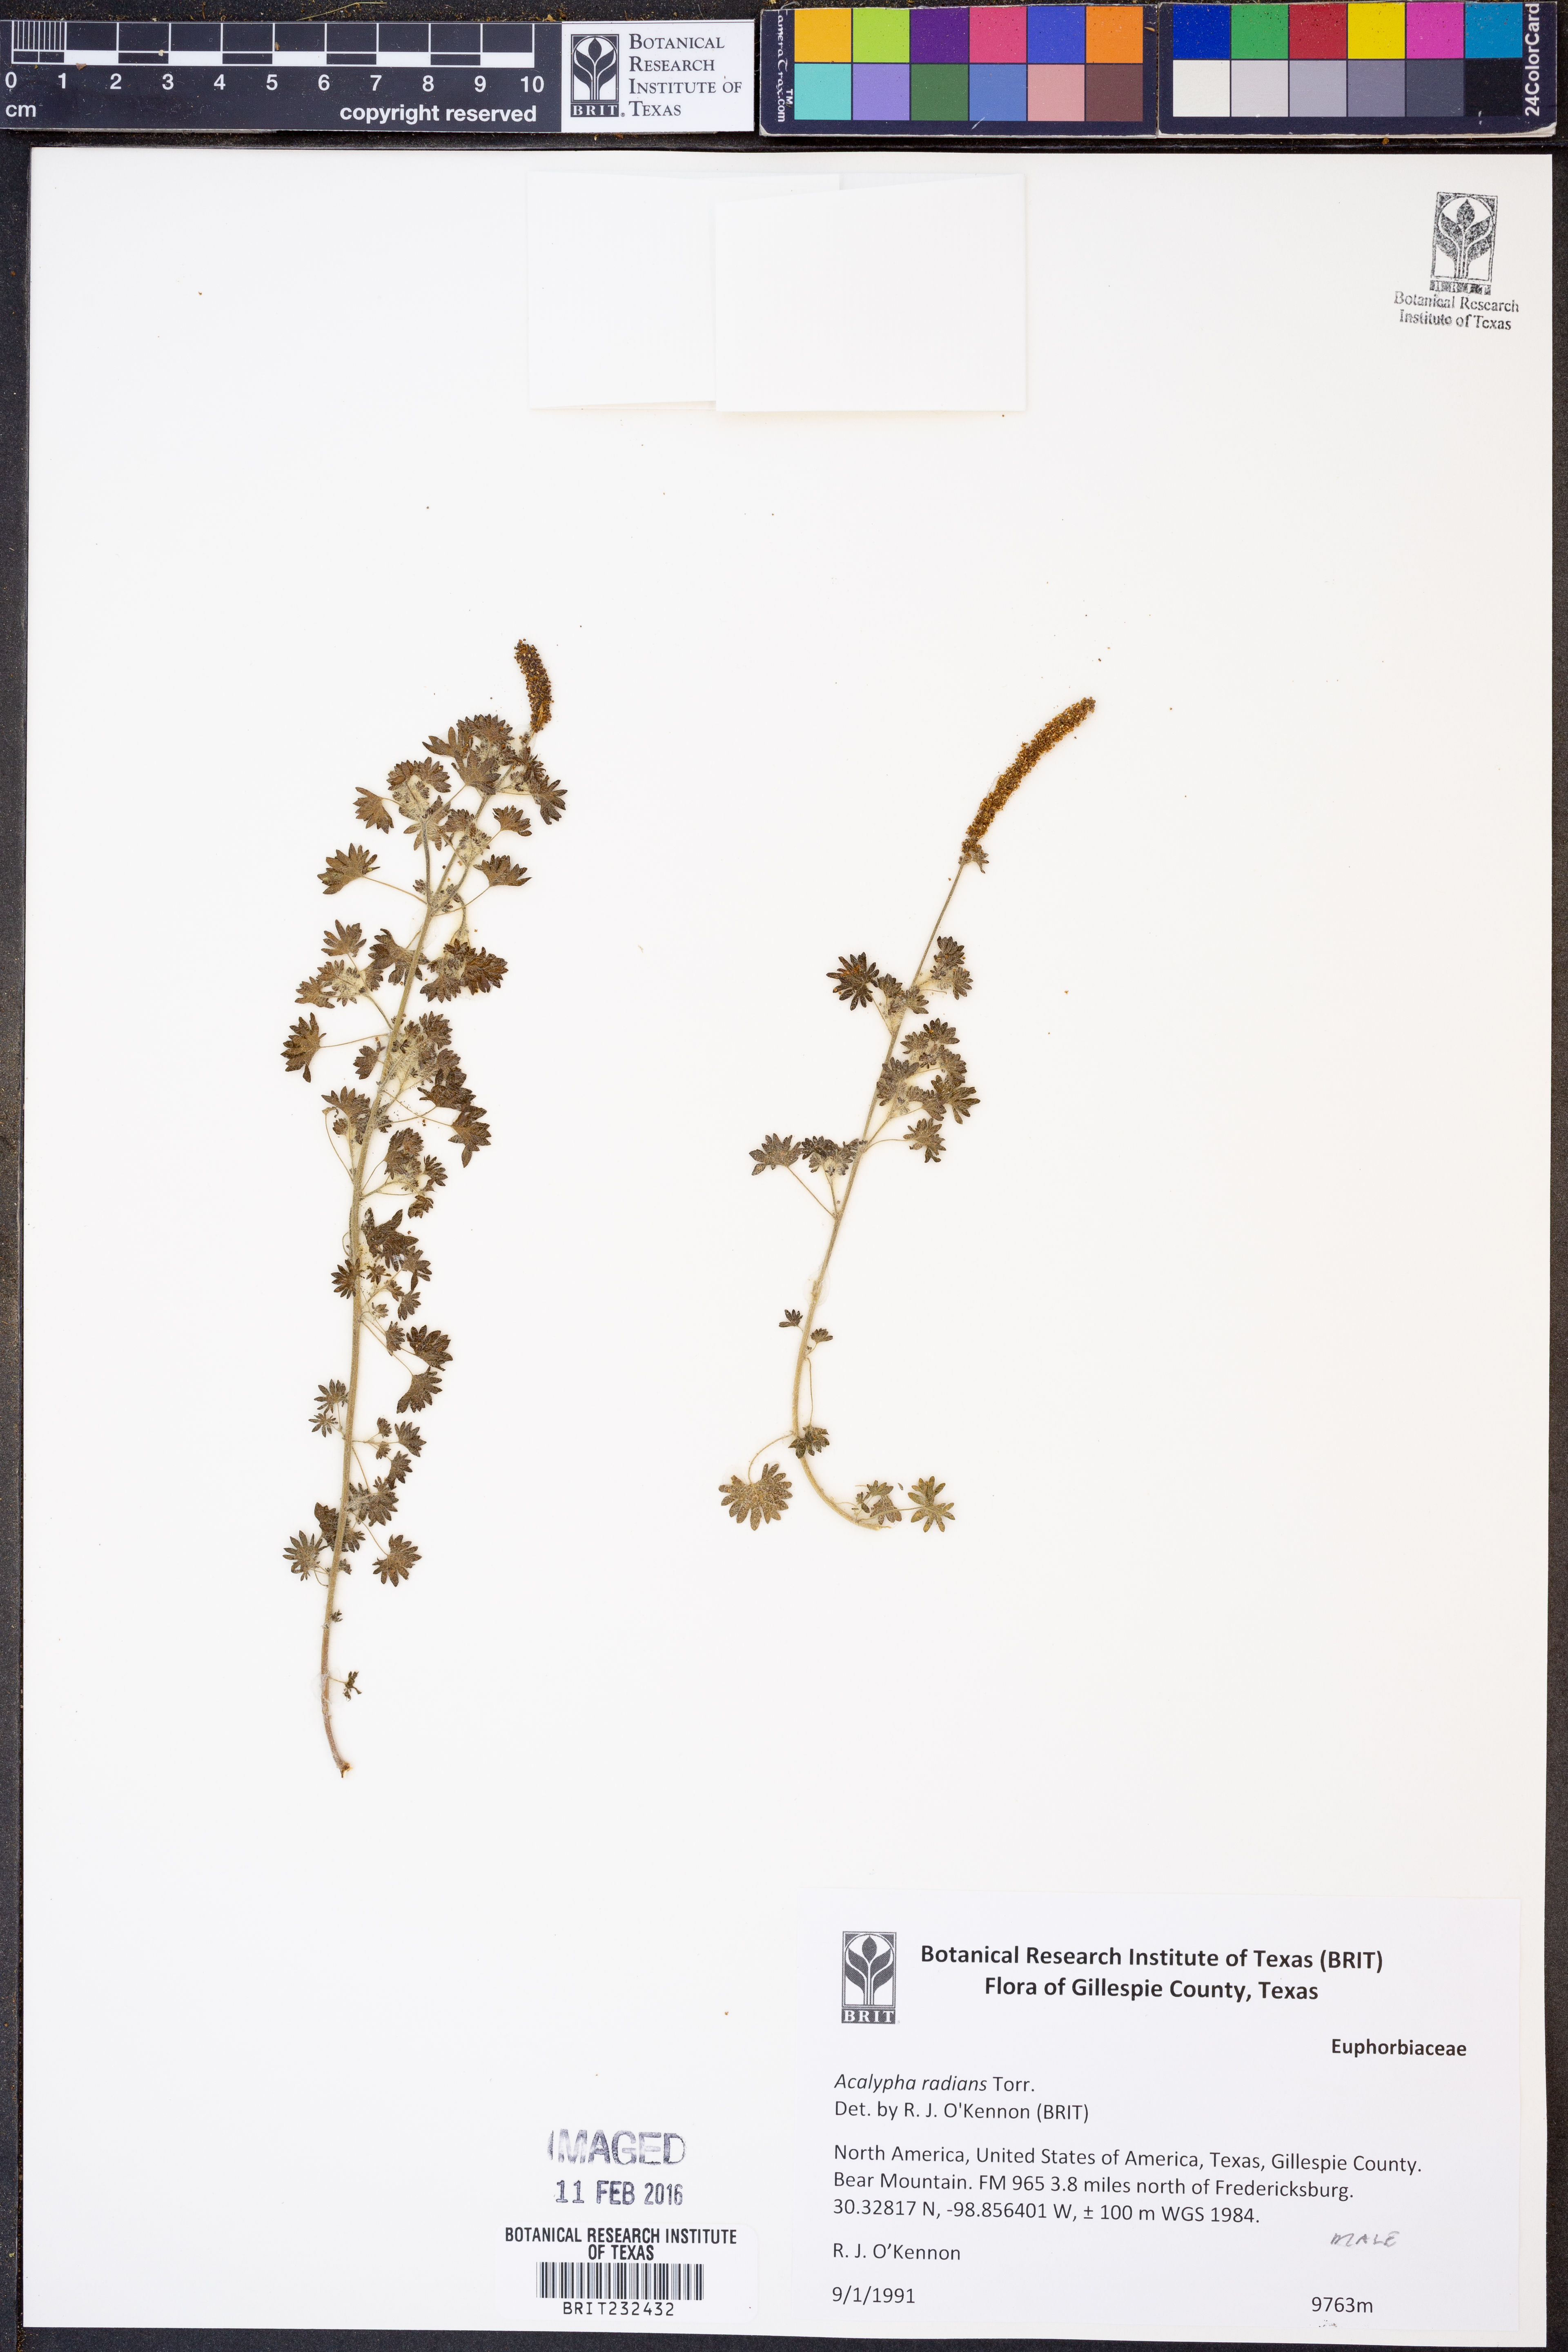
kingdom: Plantae
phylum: Tracheophyta
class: Magnoliopsida
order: Malpighiales
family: Euphorbiaceae
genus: Acalypha
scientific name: Acalypha radians
